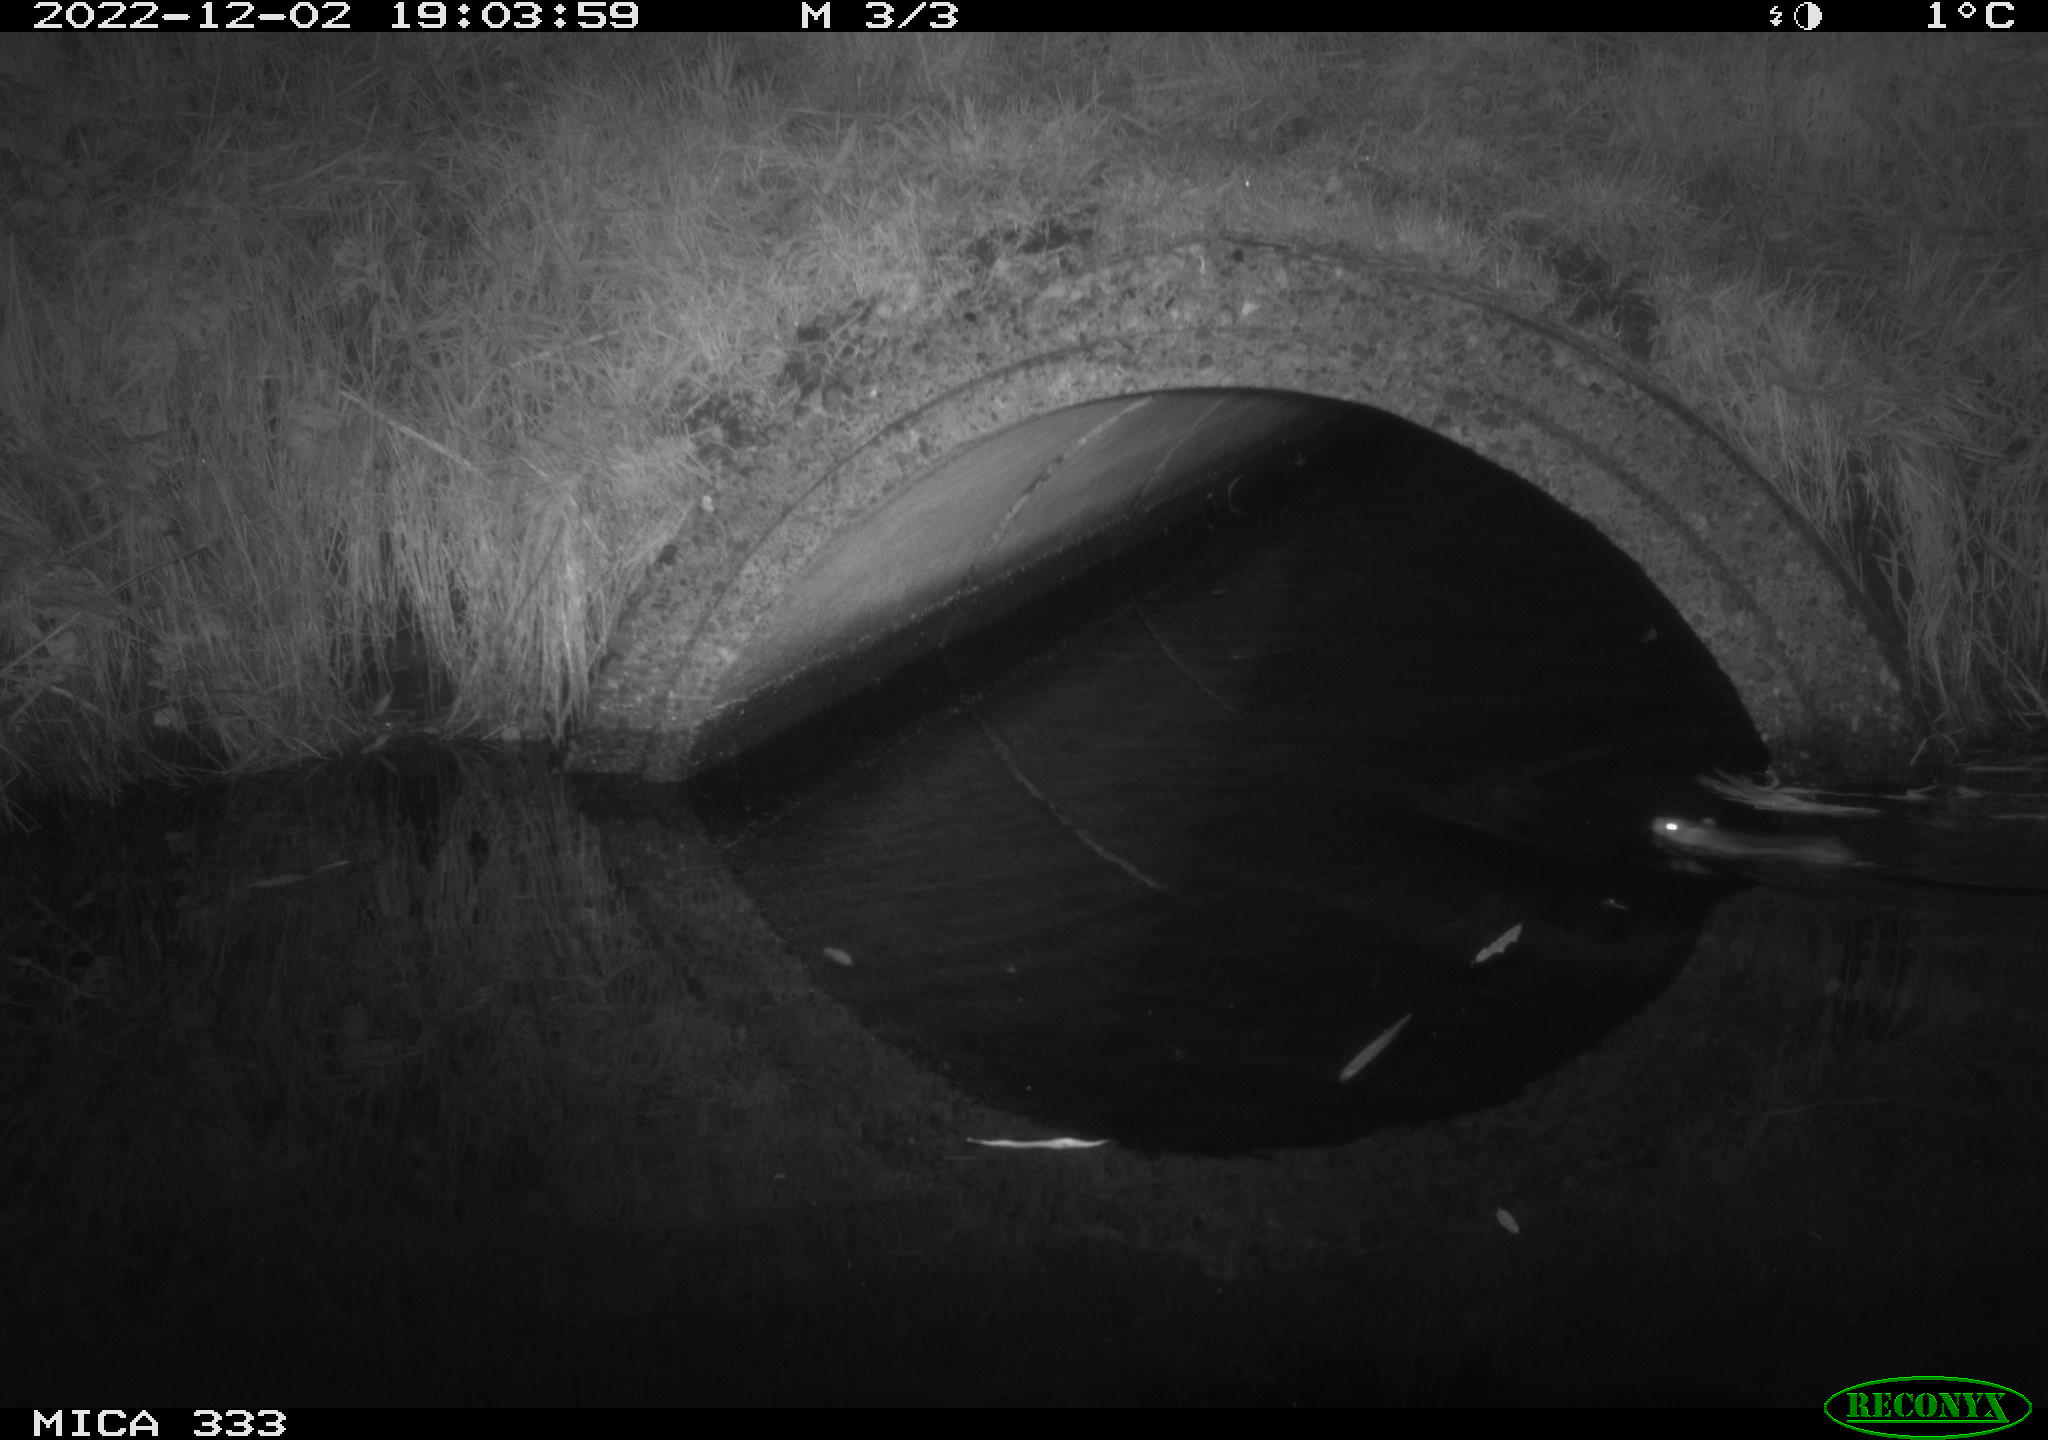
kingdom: Animalia
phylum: Chordata
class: Mammalia
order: Rodentia
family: Muridae
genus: Rattus
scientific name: Rattus norvegicus
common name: Brown rat
